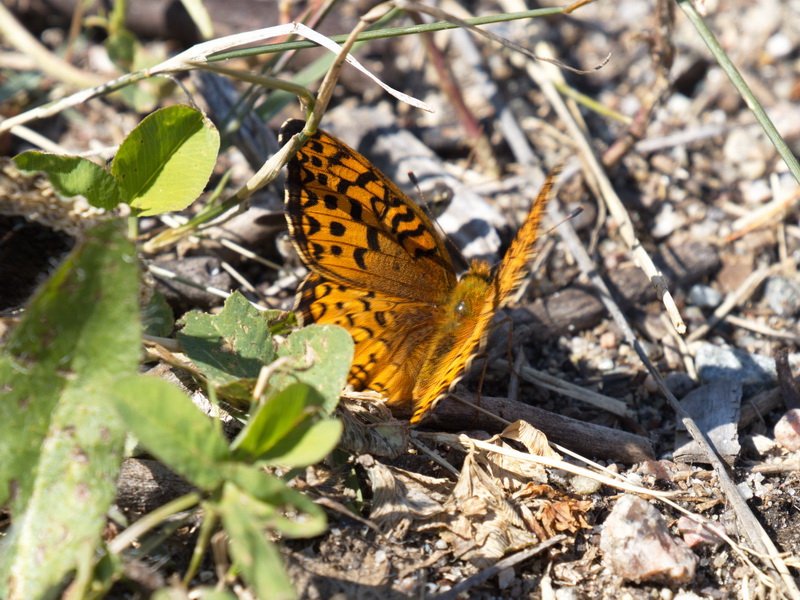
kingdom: Animalia
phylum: Arthropoda
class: Insecta
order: Lepidoptera
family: Nymphalidae
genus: Speyeria
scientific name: Speyeria aphrodite
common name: Aphrodite Fritillary
